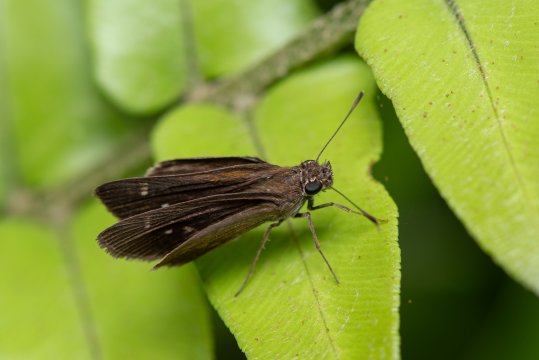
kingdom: Animalia
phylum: Arthropoda
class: Insecta
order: Lepidoptera
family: Hesperiidae
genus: Cymaenes
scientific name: Cymaenes tripunctus
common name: Three-spotted Skipper
